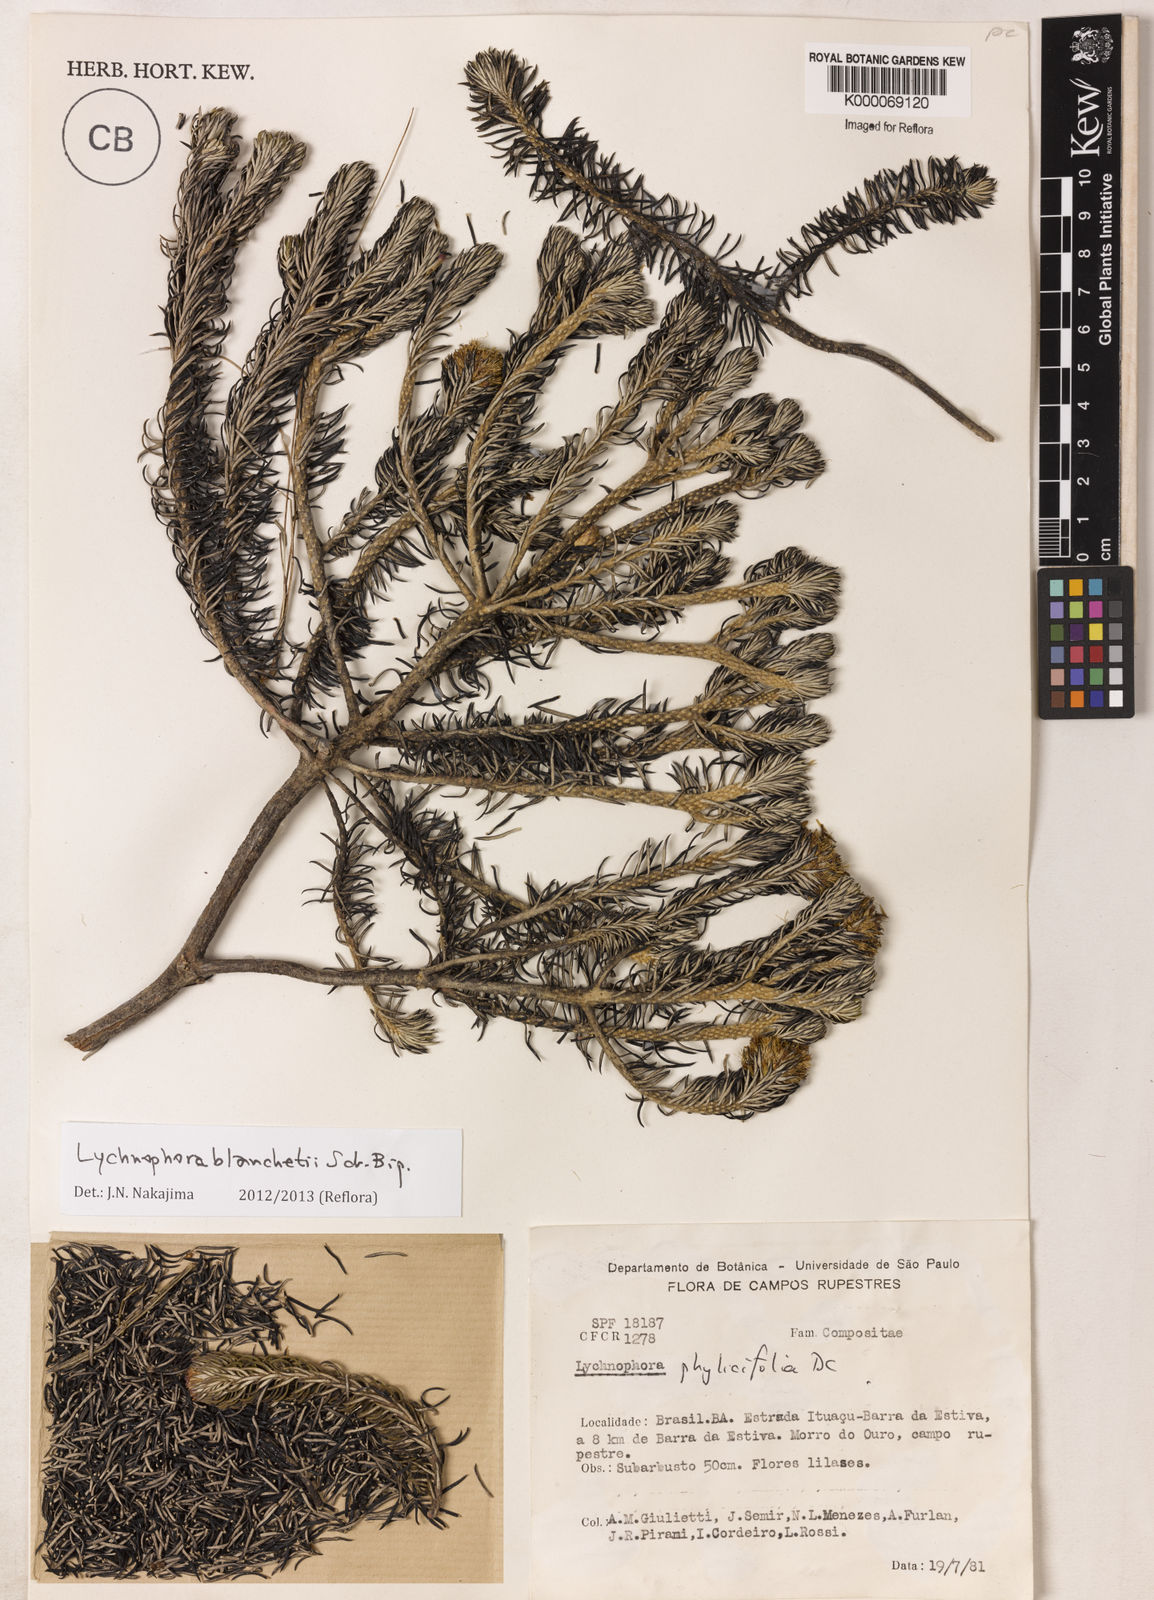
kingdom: Plantae
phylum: Tracheophyta
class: Magnoliopsida
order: Asterales
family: Asteraceae
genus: Lychnophora
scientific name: Lychnophora phylicifolia
